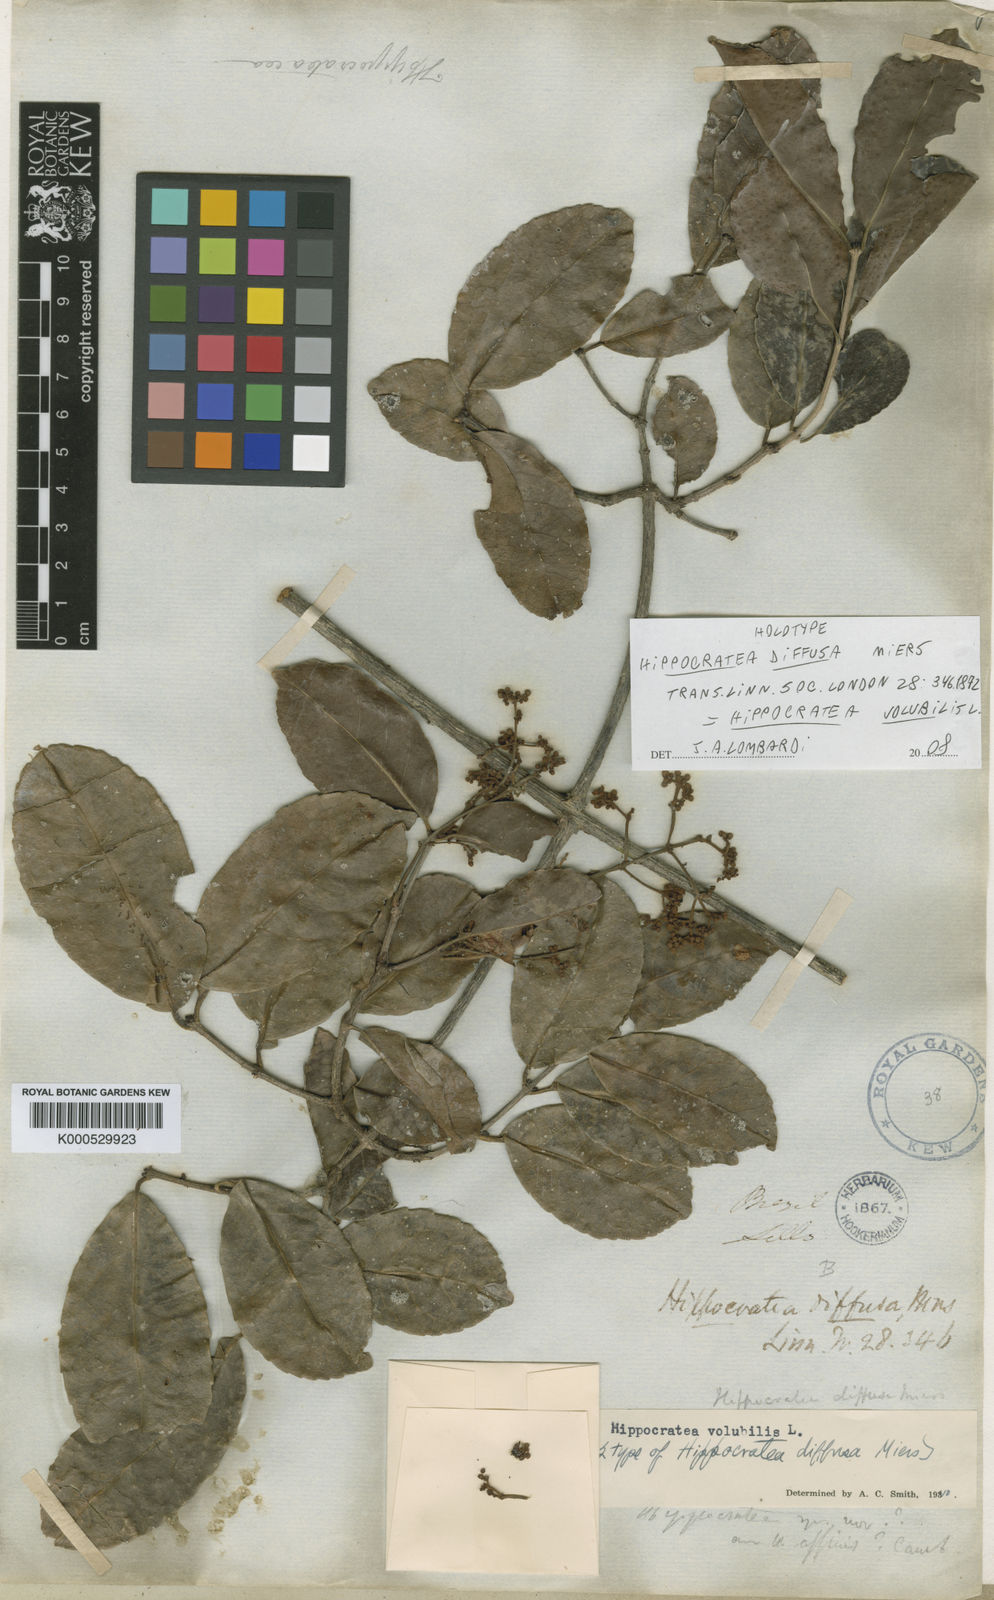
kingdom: Plantae
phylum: Tracheophyta
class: Magnoliopsida
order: Celastrales
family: Celastraceae
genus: Hippocratea
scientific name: Hippocratea volubilis
